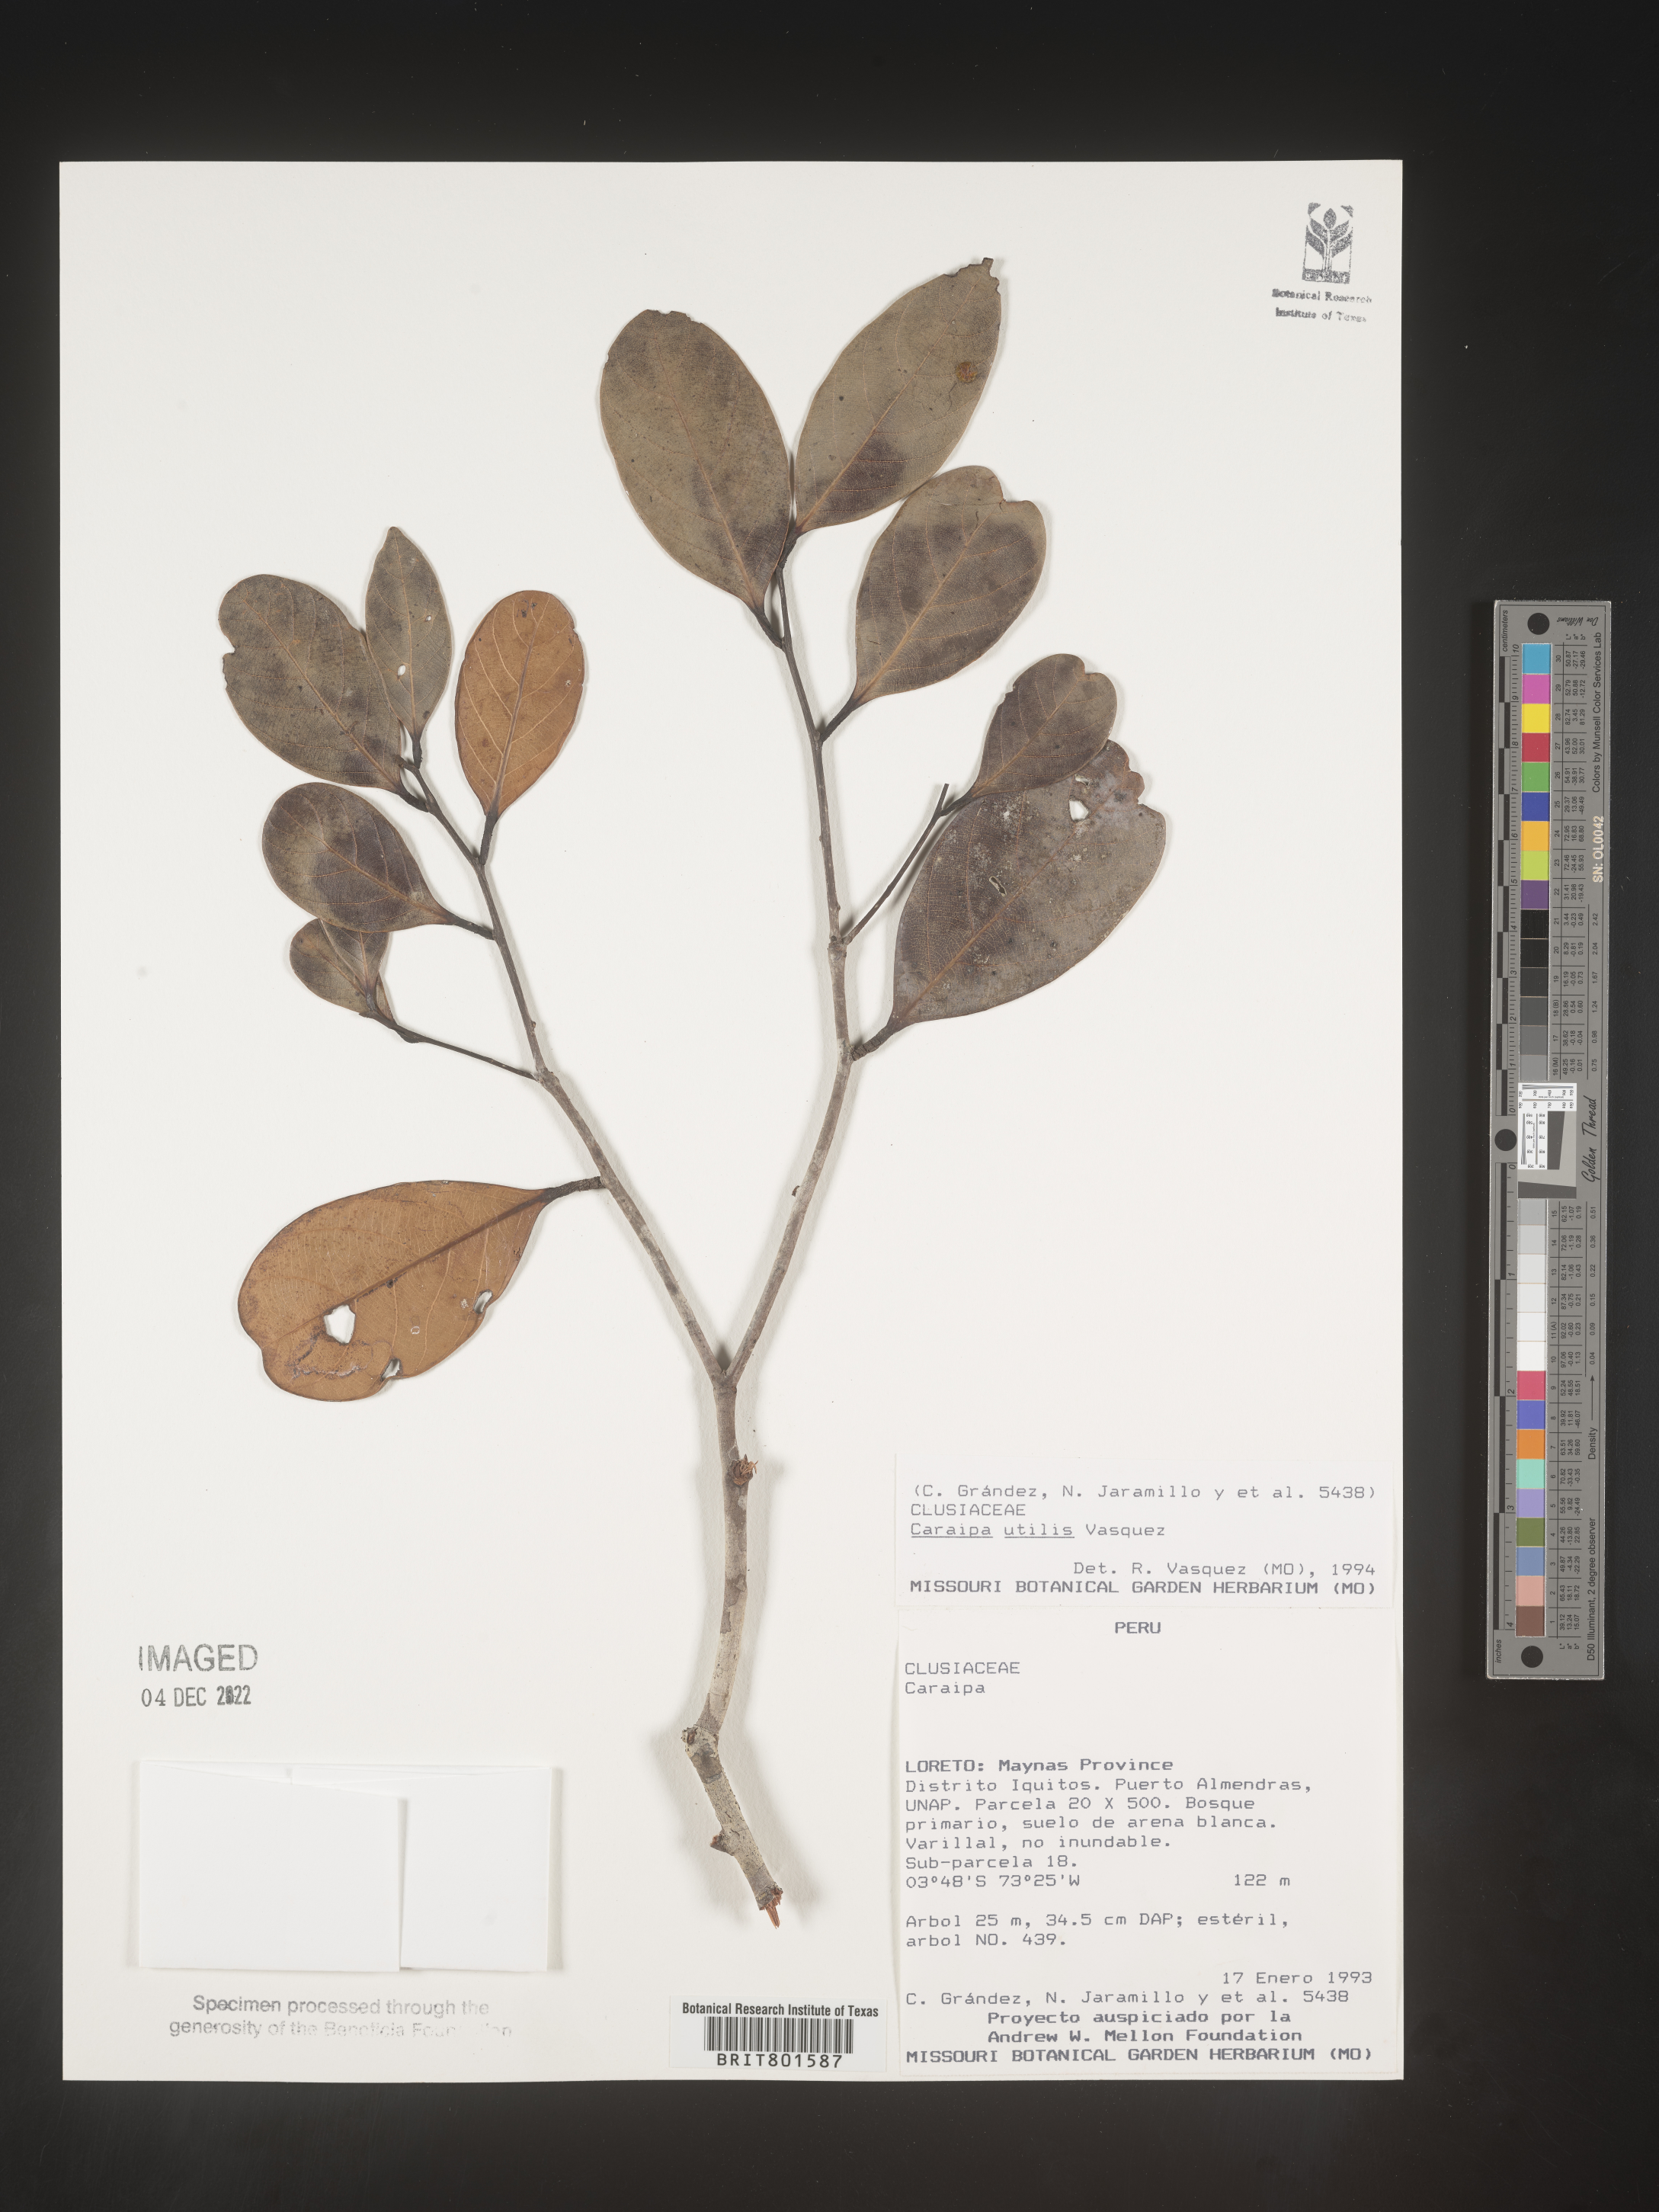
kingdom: Plantae
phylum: Tracheophyta
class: Magnoliopsida
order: Malpighiales
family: Calophyllaceae
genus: Caraipa
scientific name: Caraipa utilis
